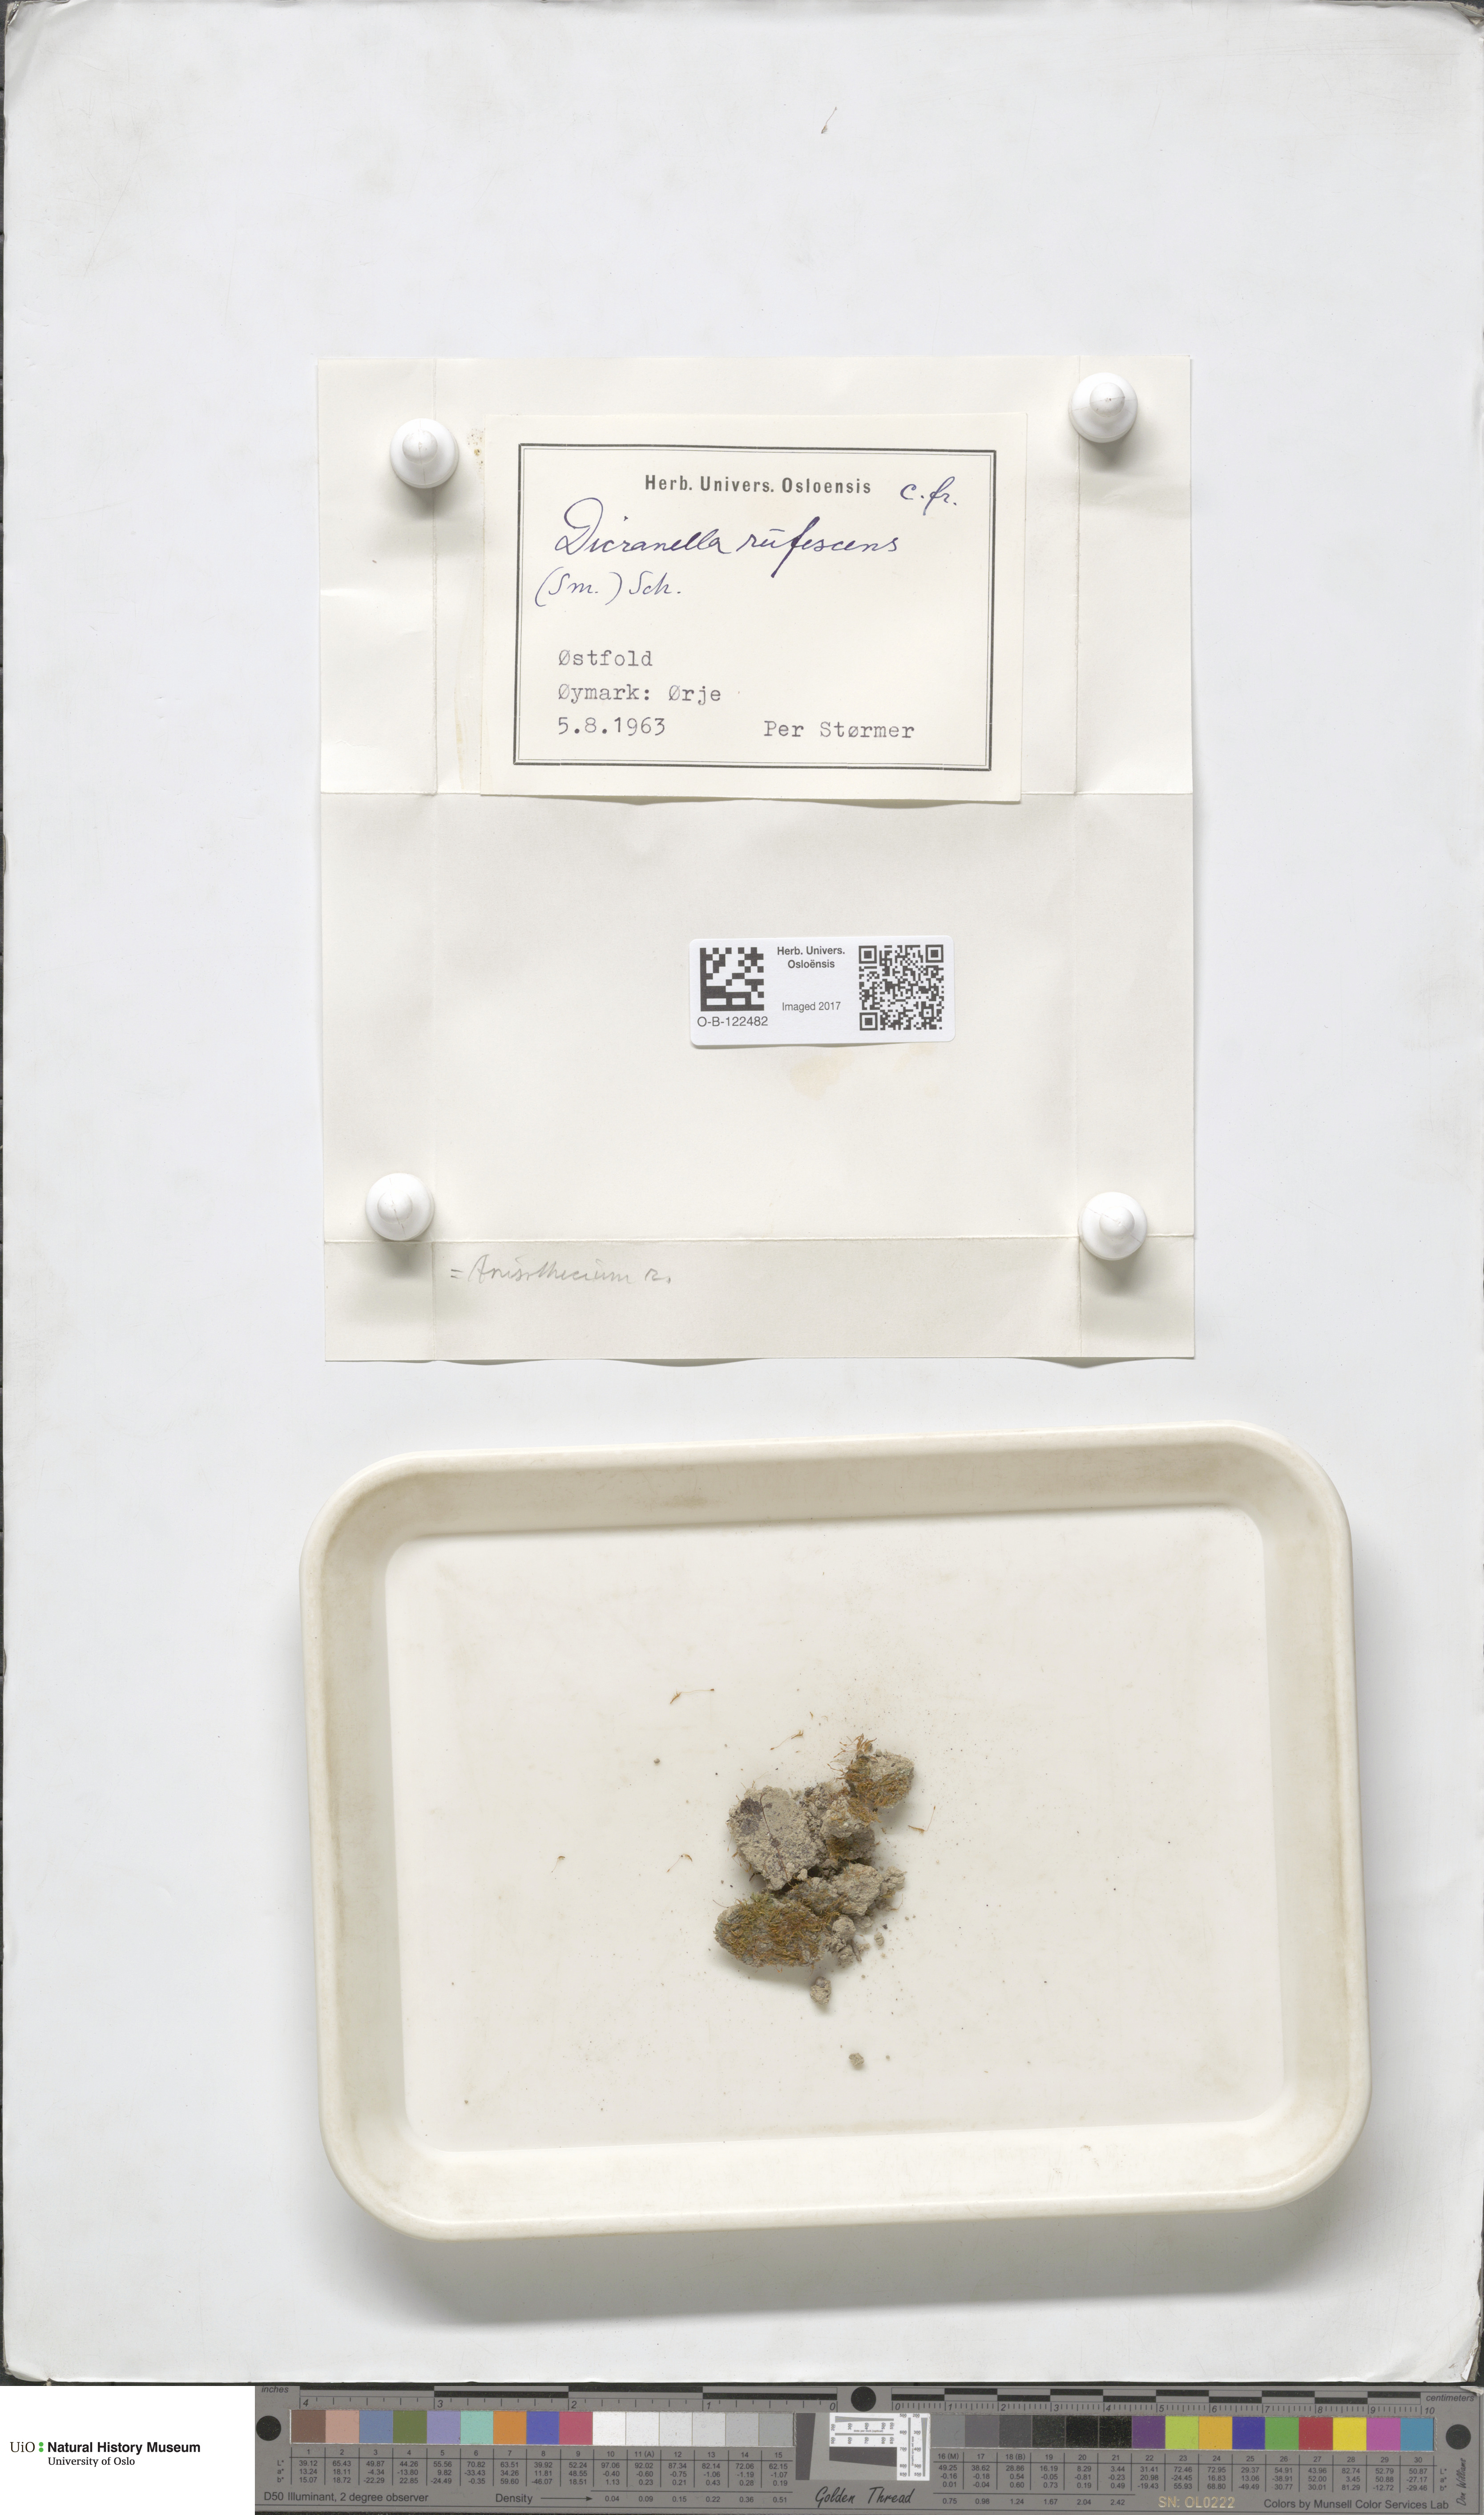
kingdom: Plantae
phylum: Bryophyta
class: Bryopsida
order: Dicranales
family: Dicranellaceae
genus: Dicranella
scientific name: Dicranella rufescens
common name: Red forklet moss
